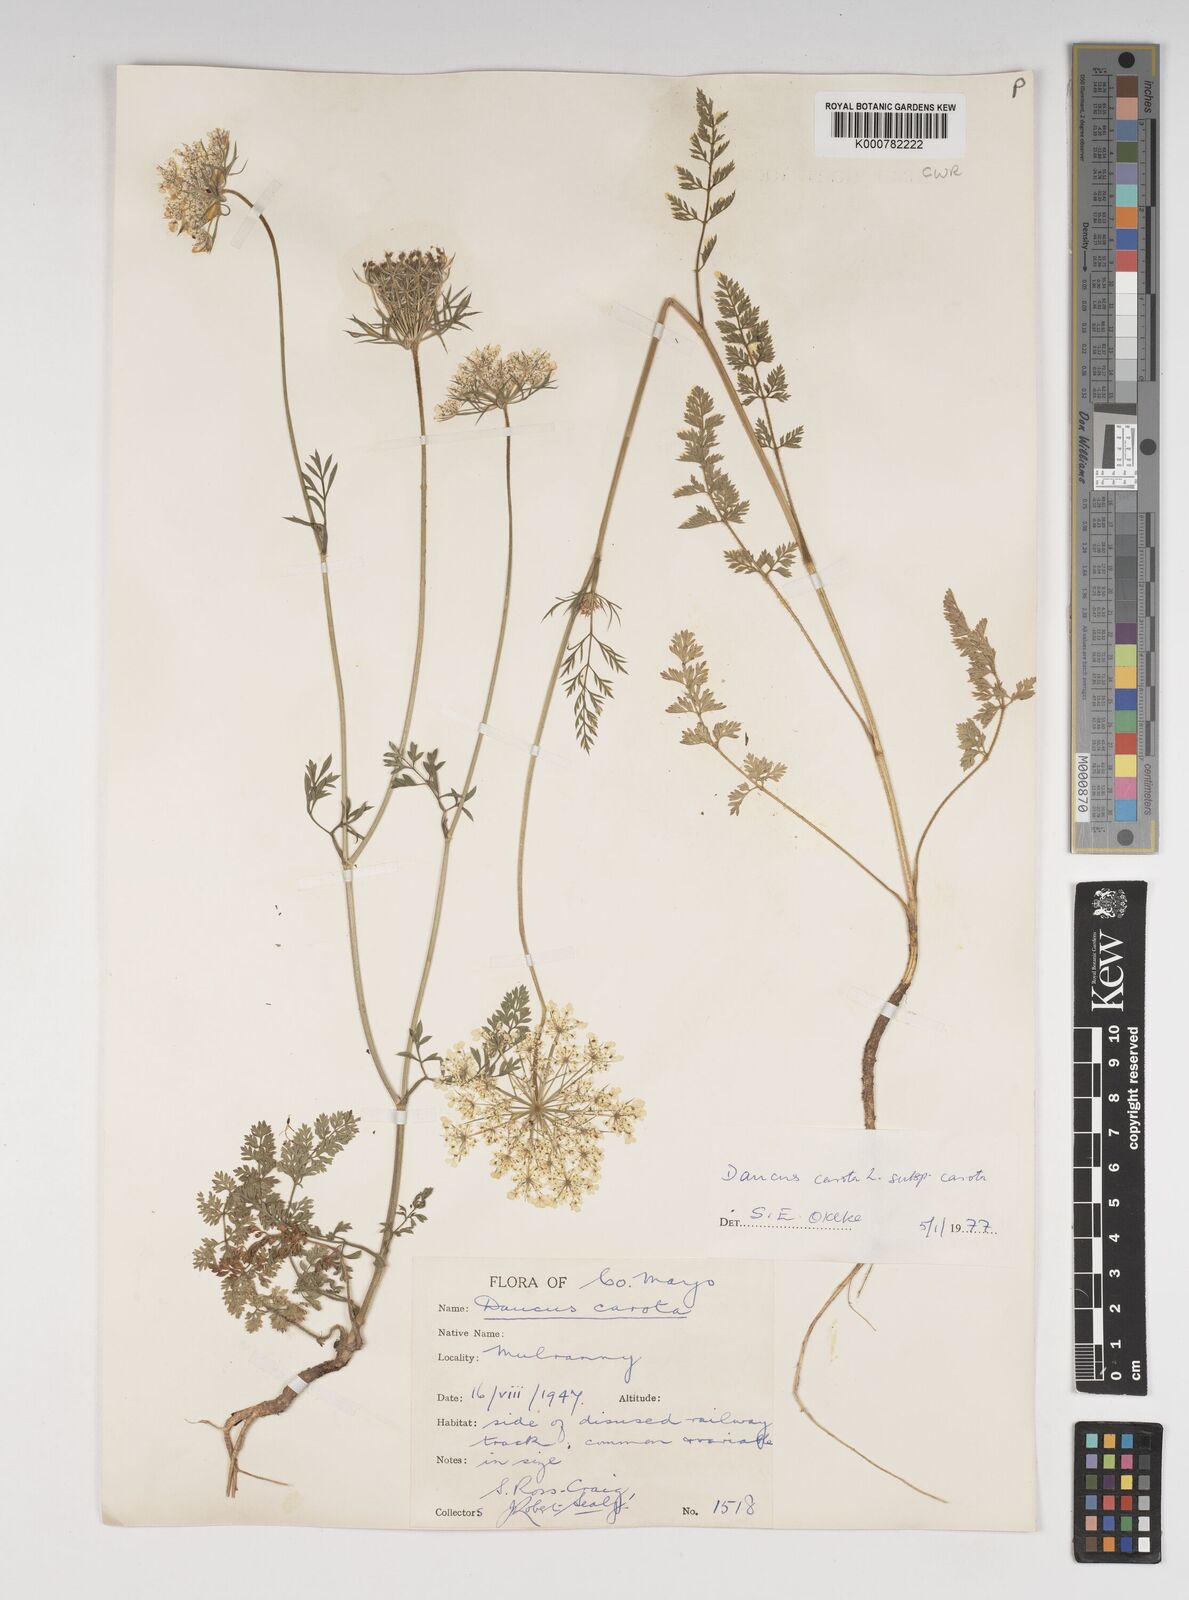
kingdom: Plantae
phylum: Tracheophyta
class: Magnoliopsida
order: Apiales
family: Apiaceae
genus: Daucus
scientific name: Daucus carota
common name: Wild carrot
